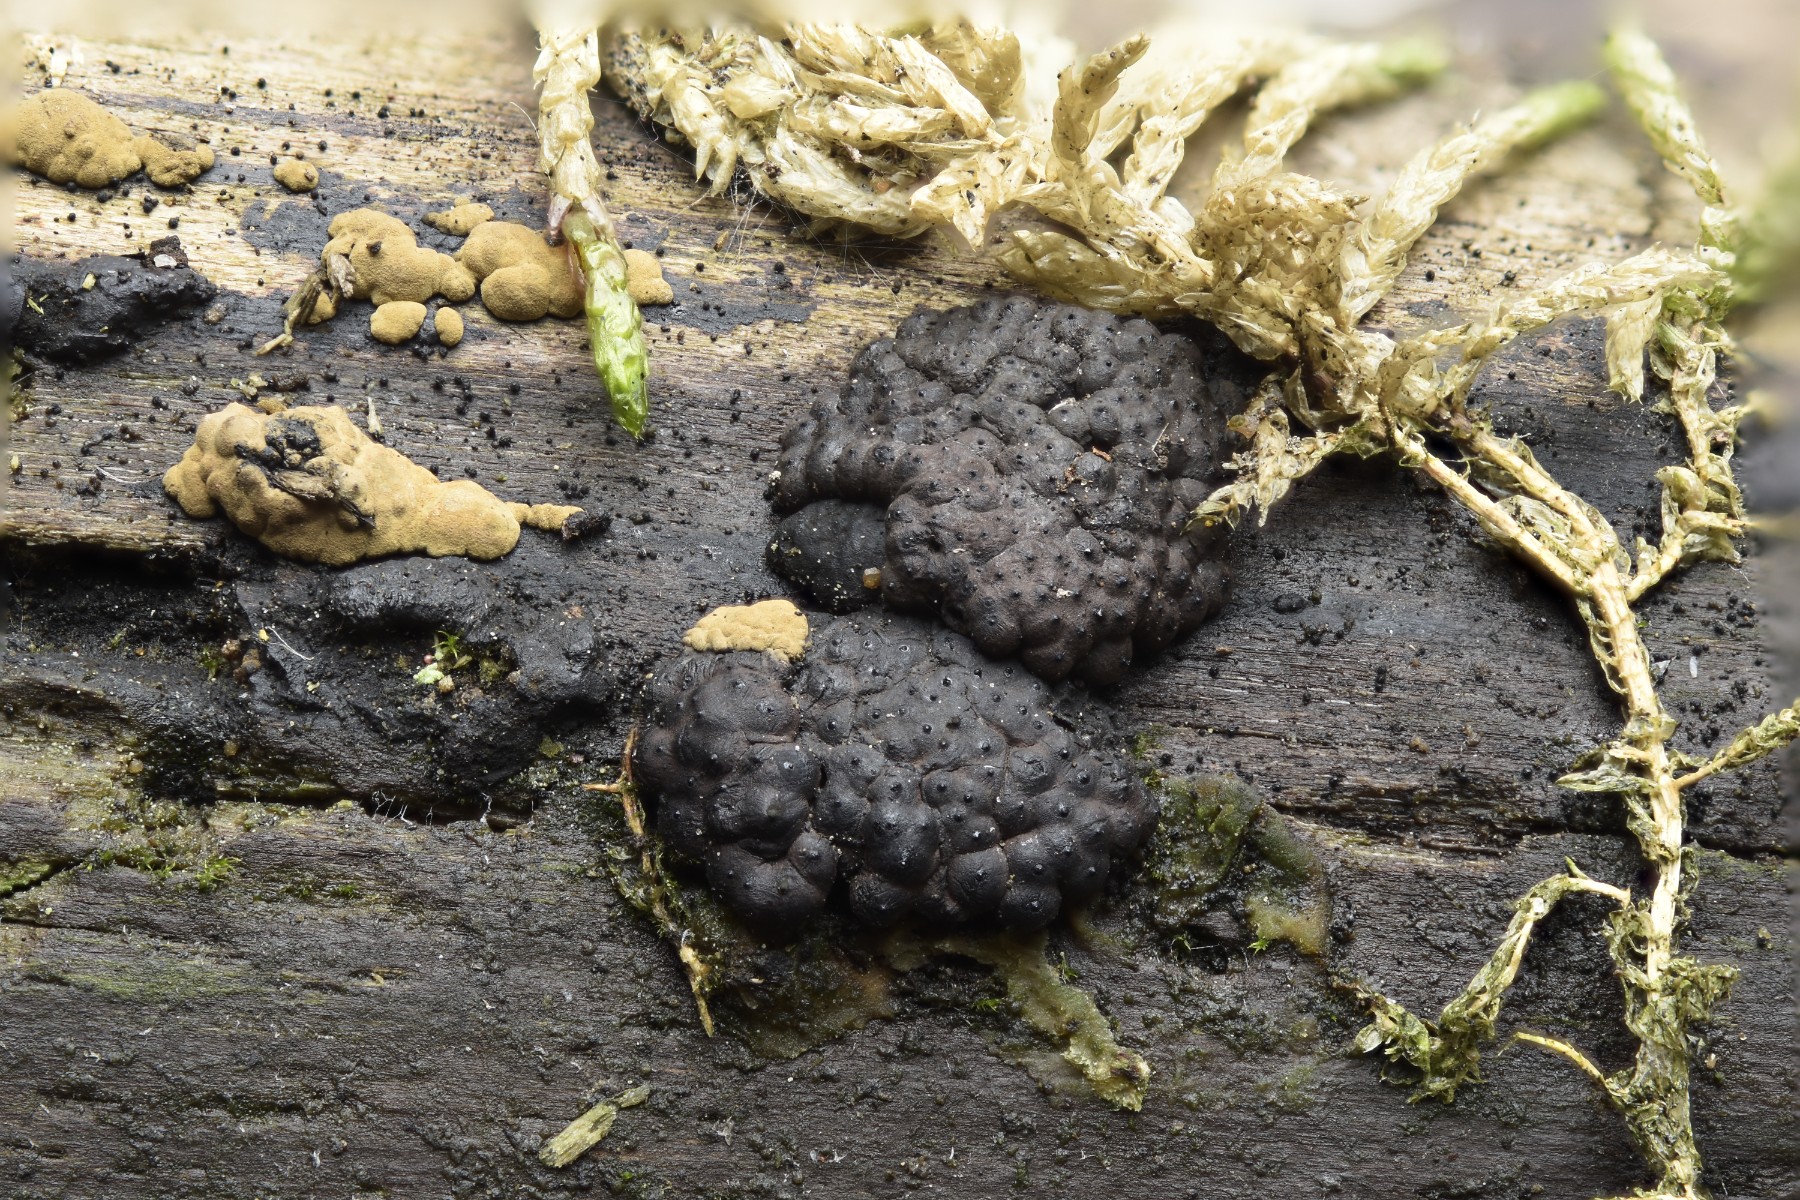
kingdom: Fungi
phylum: Ascomycota
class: Sordariomycetes
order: Xylariales
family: Hypoxylaceae
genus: Jackrogersella
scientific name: Jackrogersella cohaerens
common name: sammenflydende kulbær
